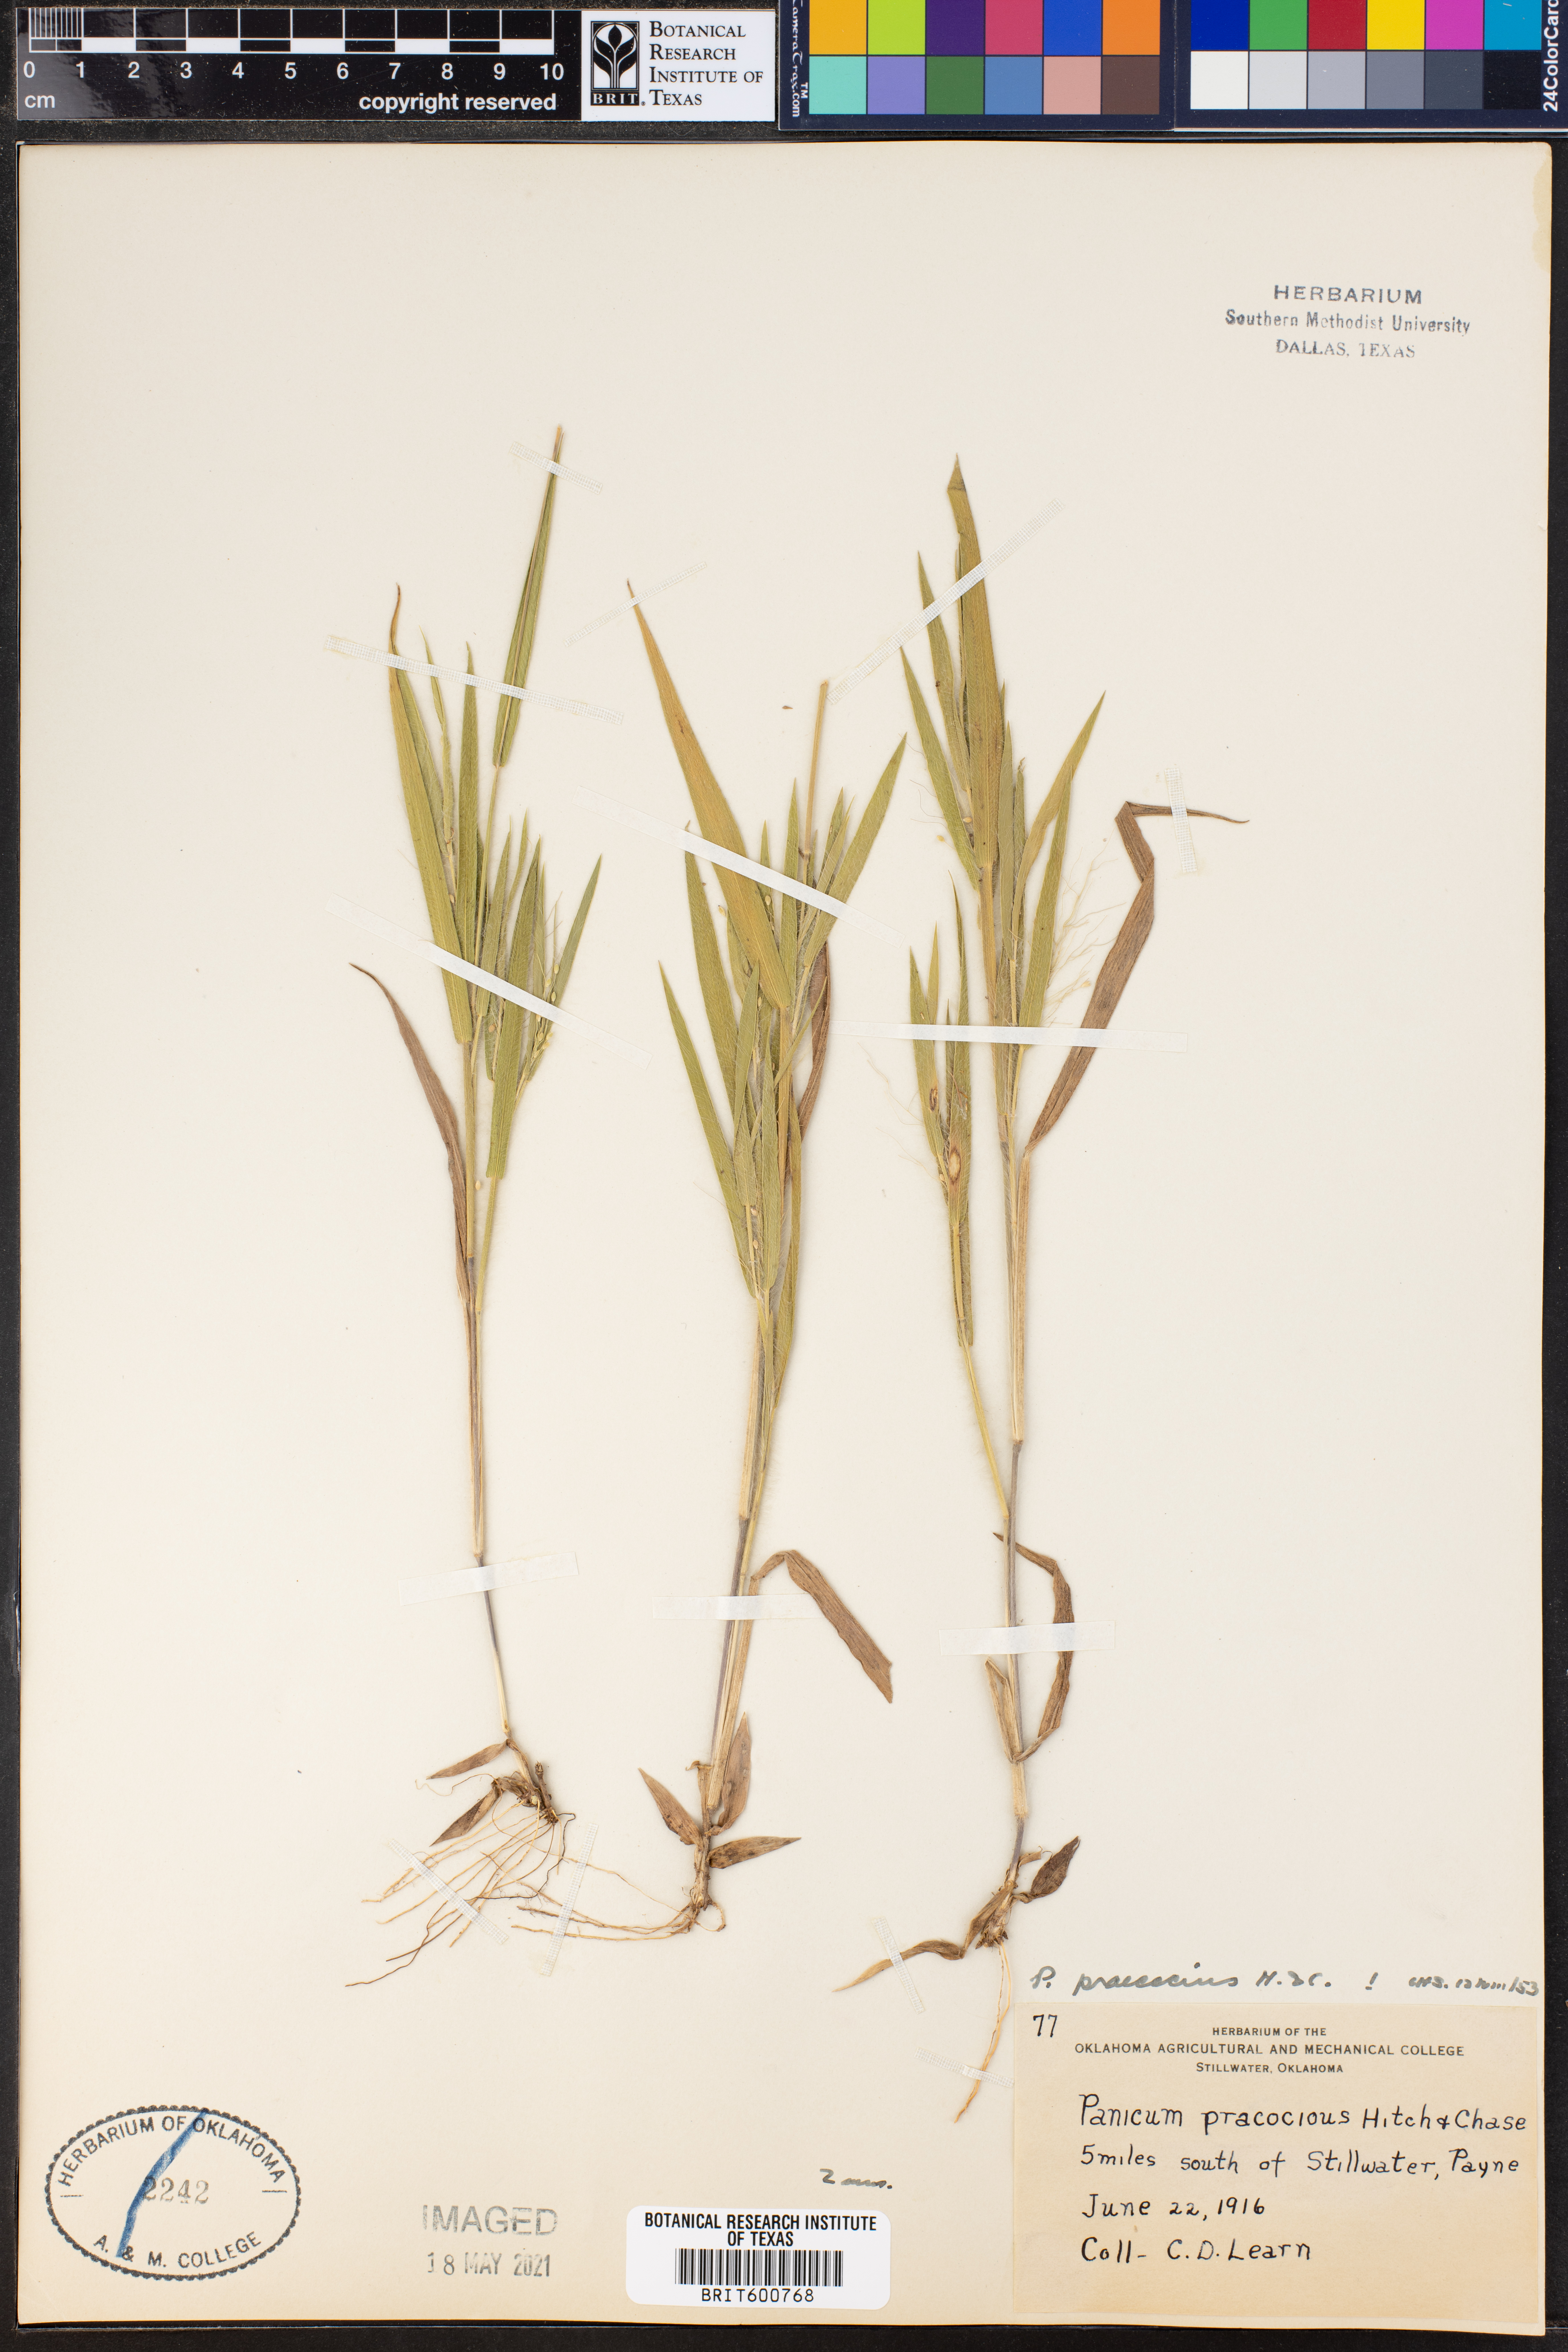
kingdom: Plantae
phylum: Tracheophyta
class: Liliopsida
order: Poales
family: Poaceae
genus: Dichanthelium
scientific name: Dichanthelium praecocius
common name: Early-branching panicgrass
